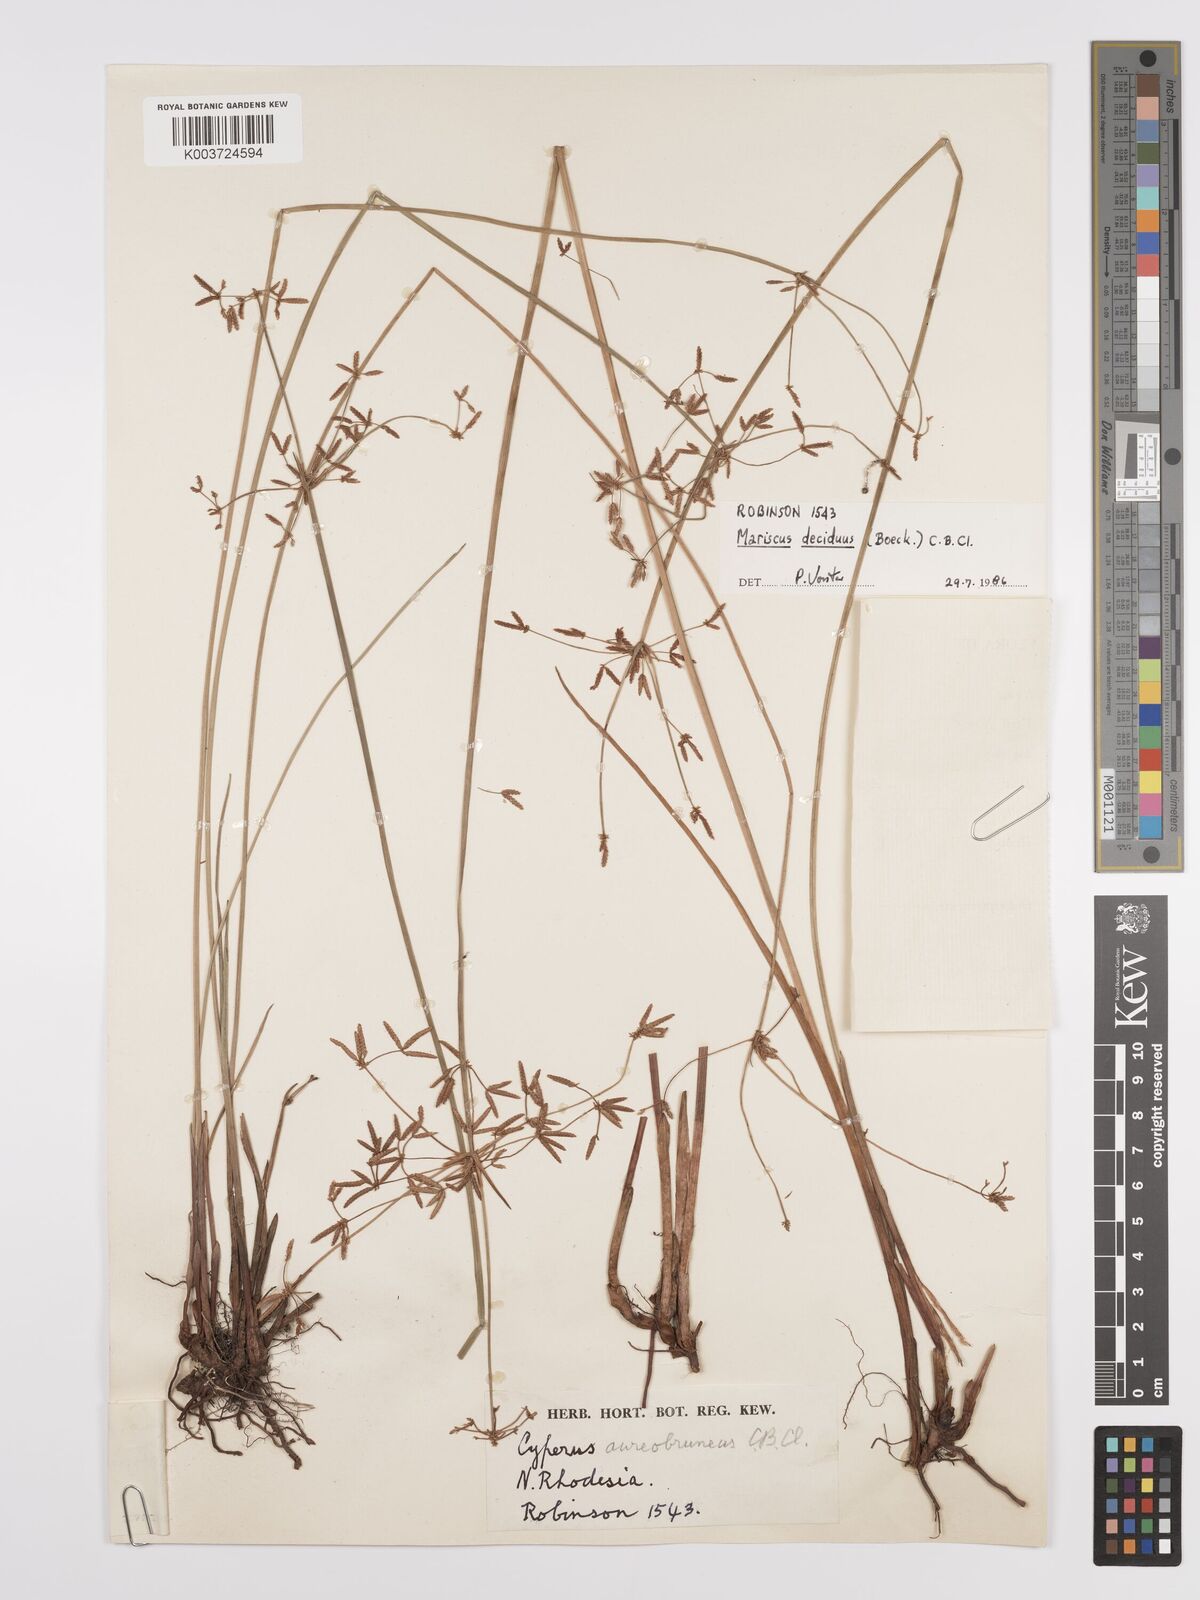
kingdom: Plantae
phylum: Tracheophyta
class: Liliopsida
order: Poales
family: Cyperaceae
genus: Cyperus
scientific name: Cyperus deciduus
